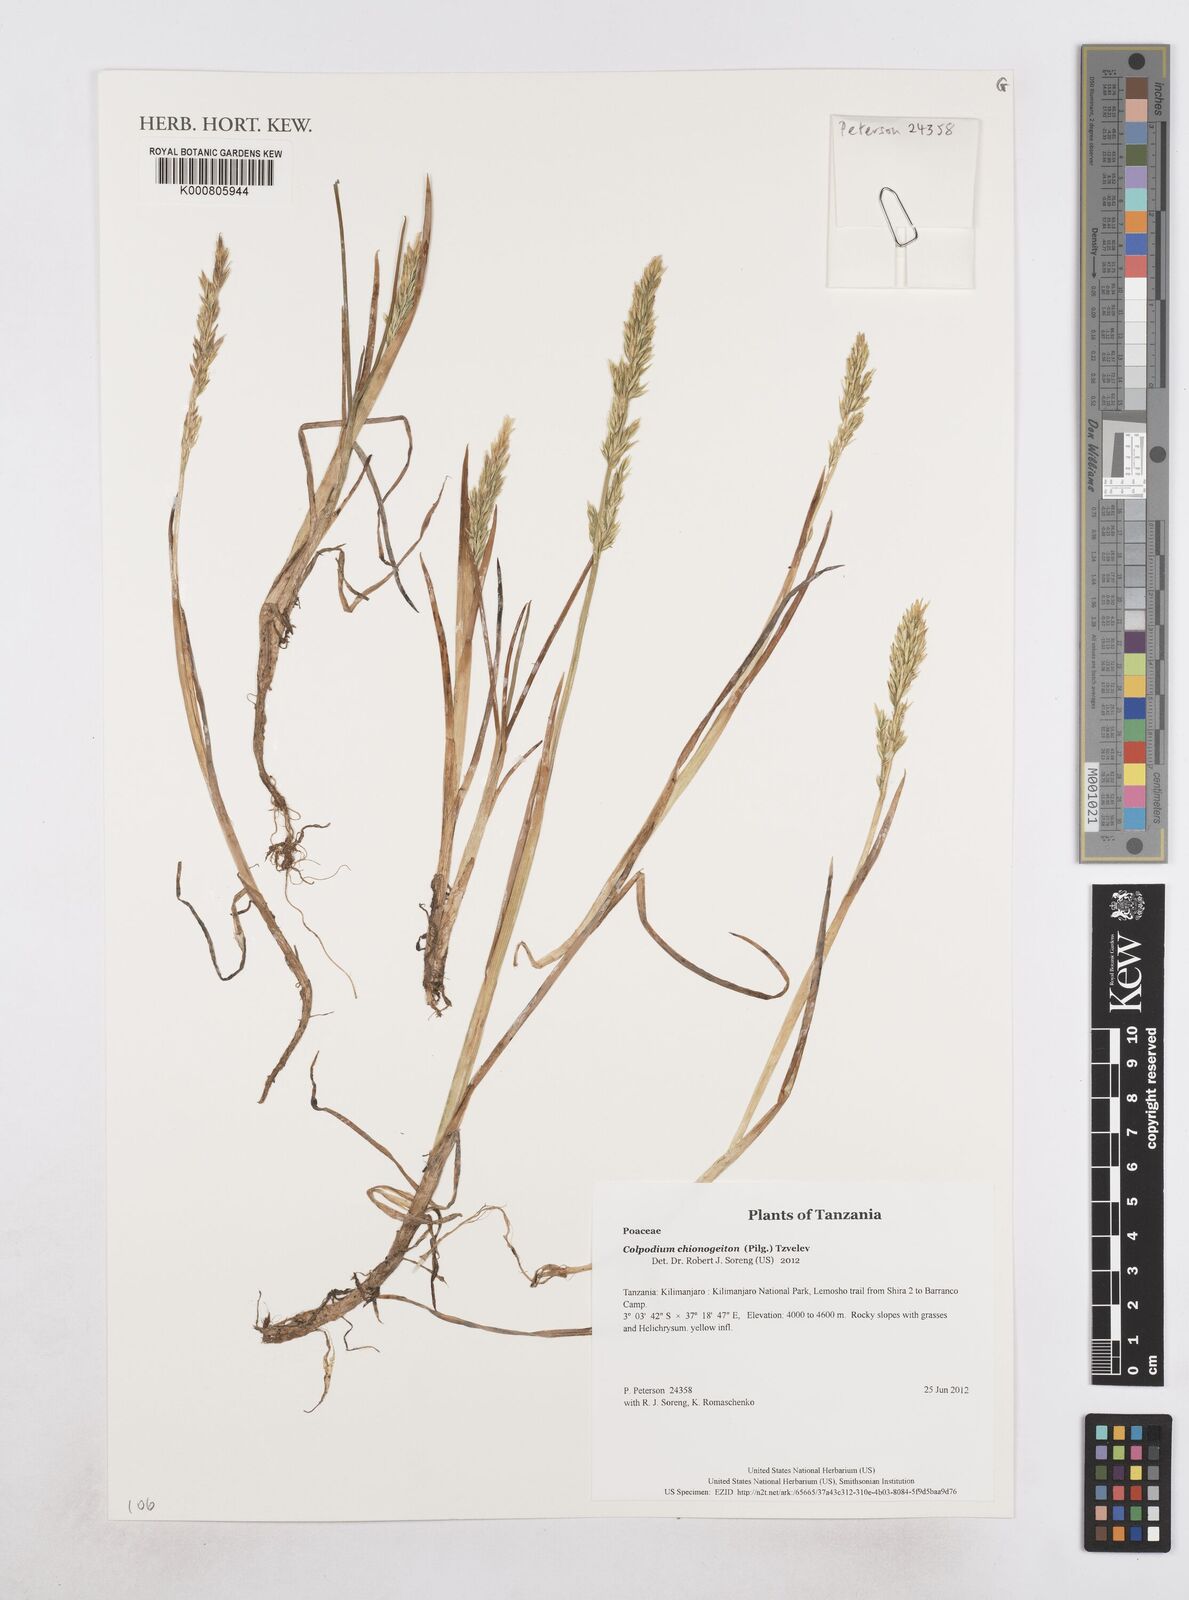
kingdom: Plantae
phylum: Tracheophyta
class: Liliopsida
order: Poales
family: Poaceae
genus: Colpodium
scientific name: Colpodium chionogeiton
